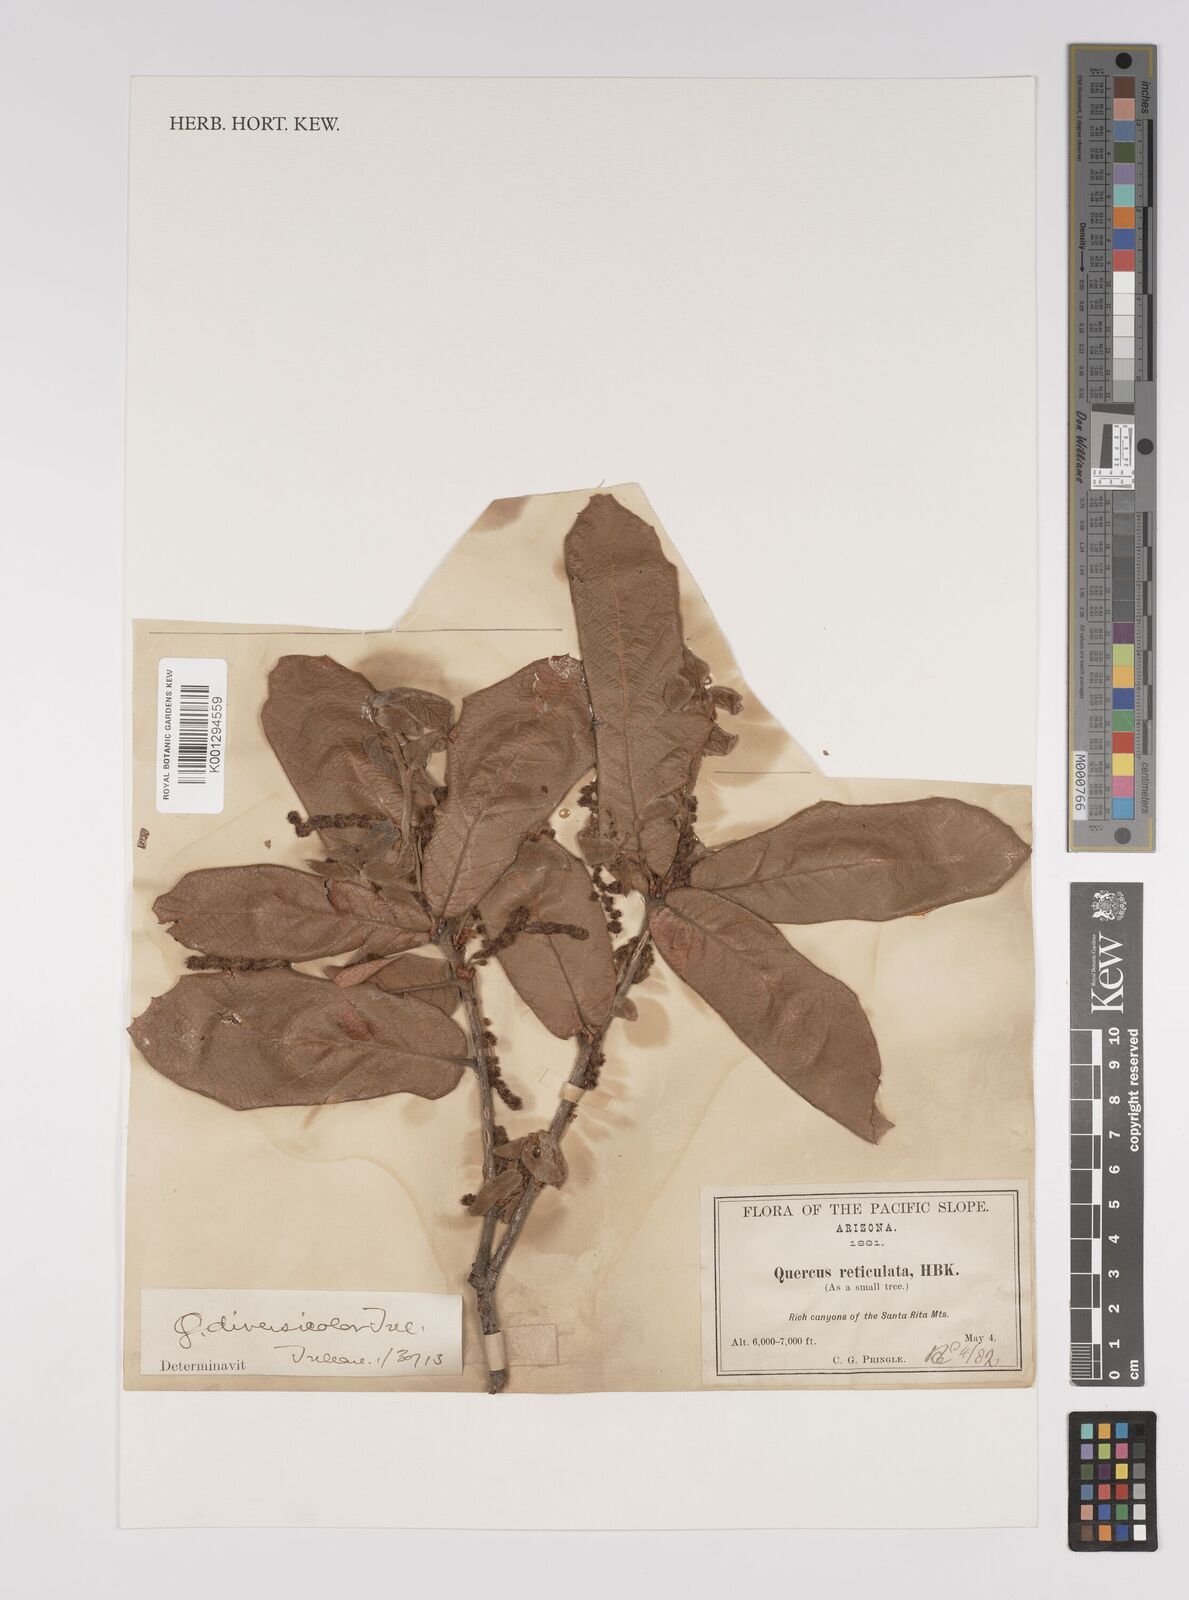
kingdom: Plantae
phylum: Tracheophyta
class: Magnoliopsida
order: Fagales
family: Fagaceae
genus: Quercus
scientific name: Quercus rugosa
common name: Netleaf oak
